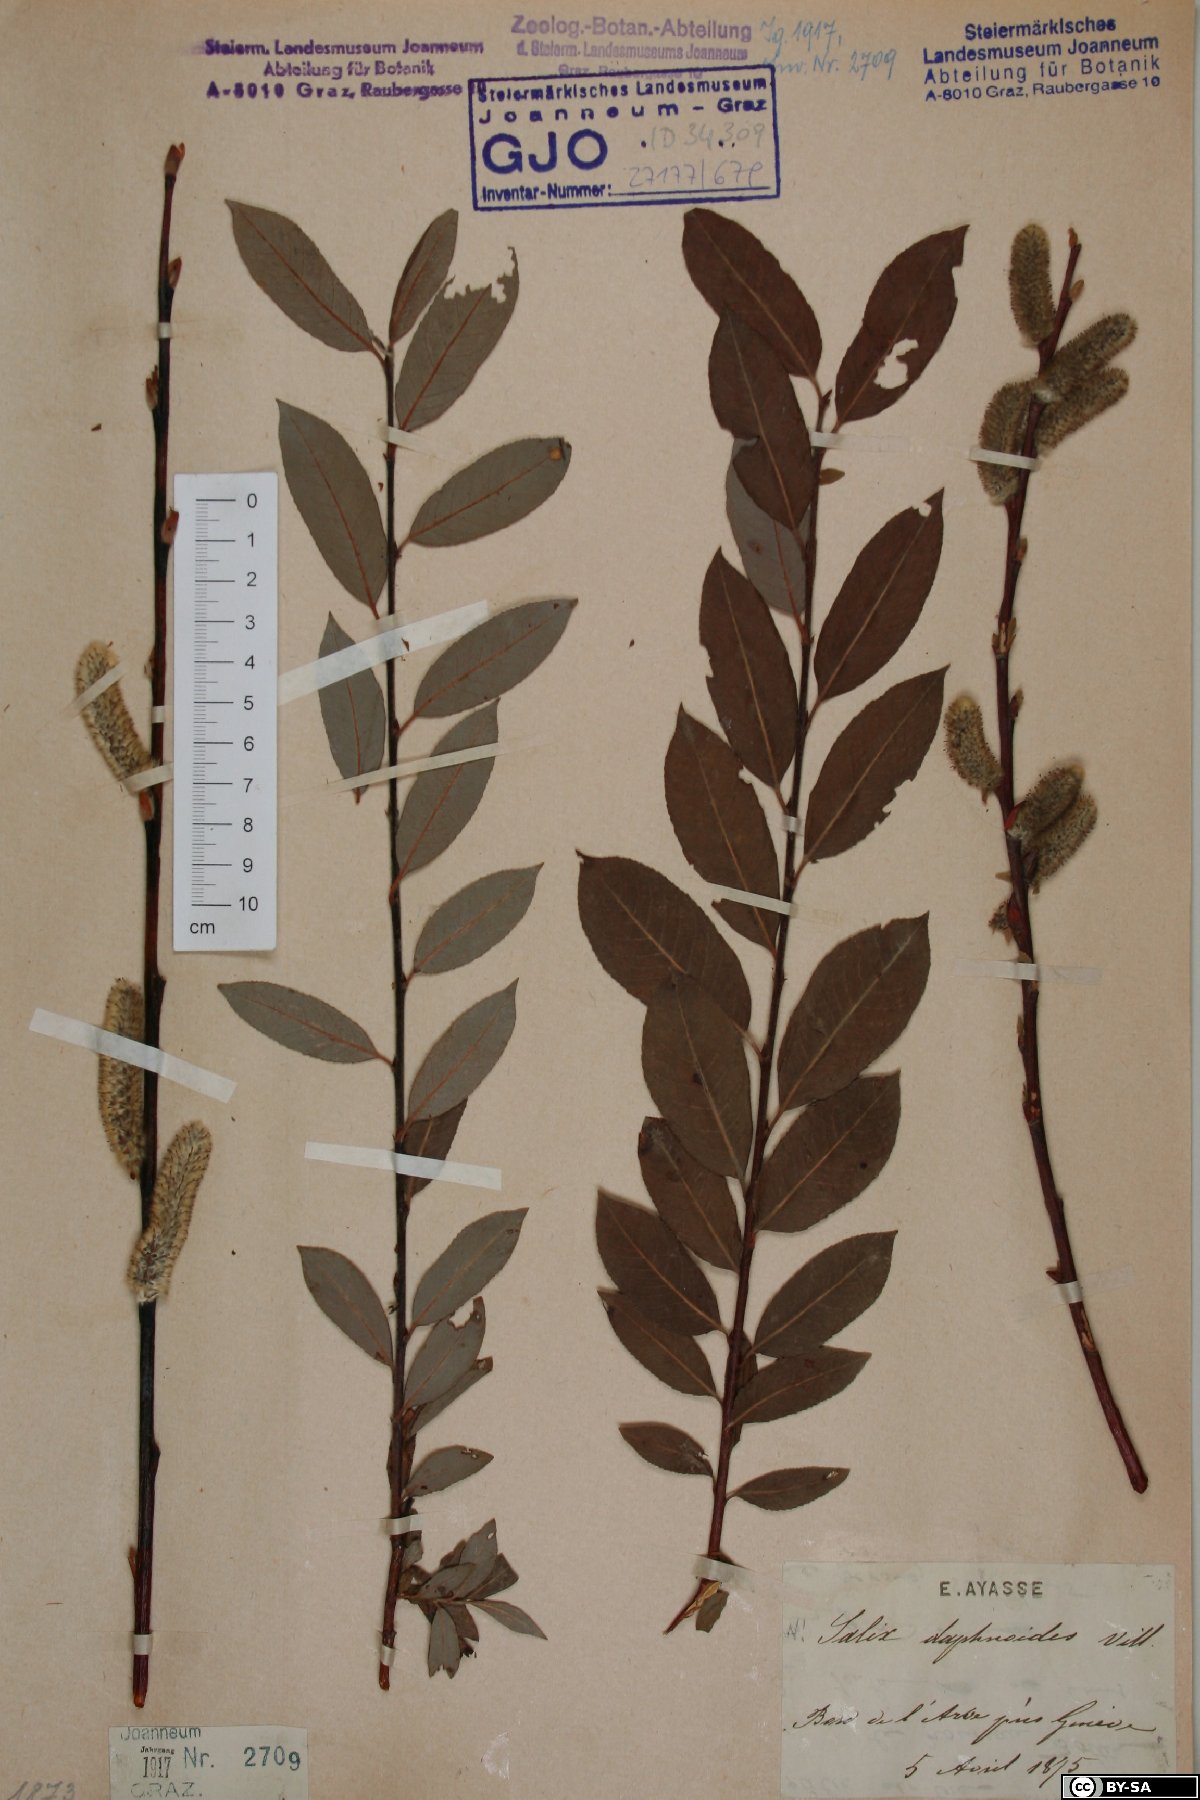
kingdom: Plantae
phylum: Tracheophyta
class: Magnoliopsida
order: Malpighiales
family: Salicaceae
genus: Salix
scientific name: Salix daphnoides
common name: European violet-willow
